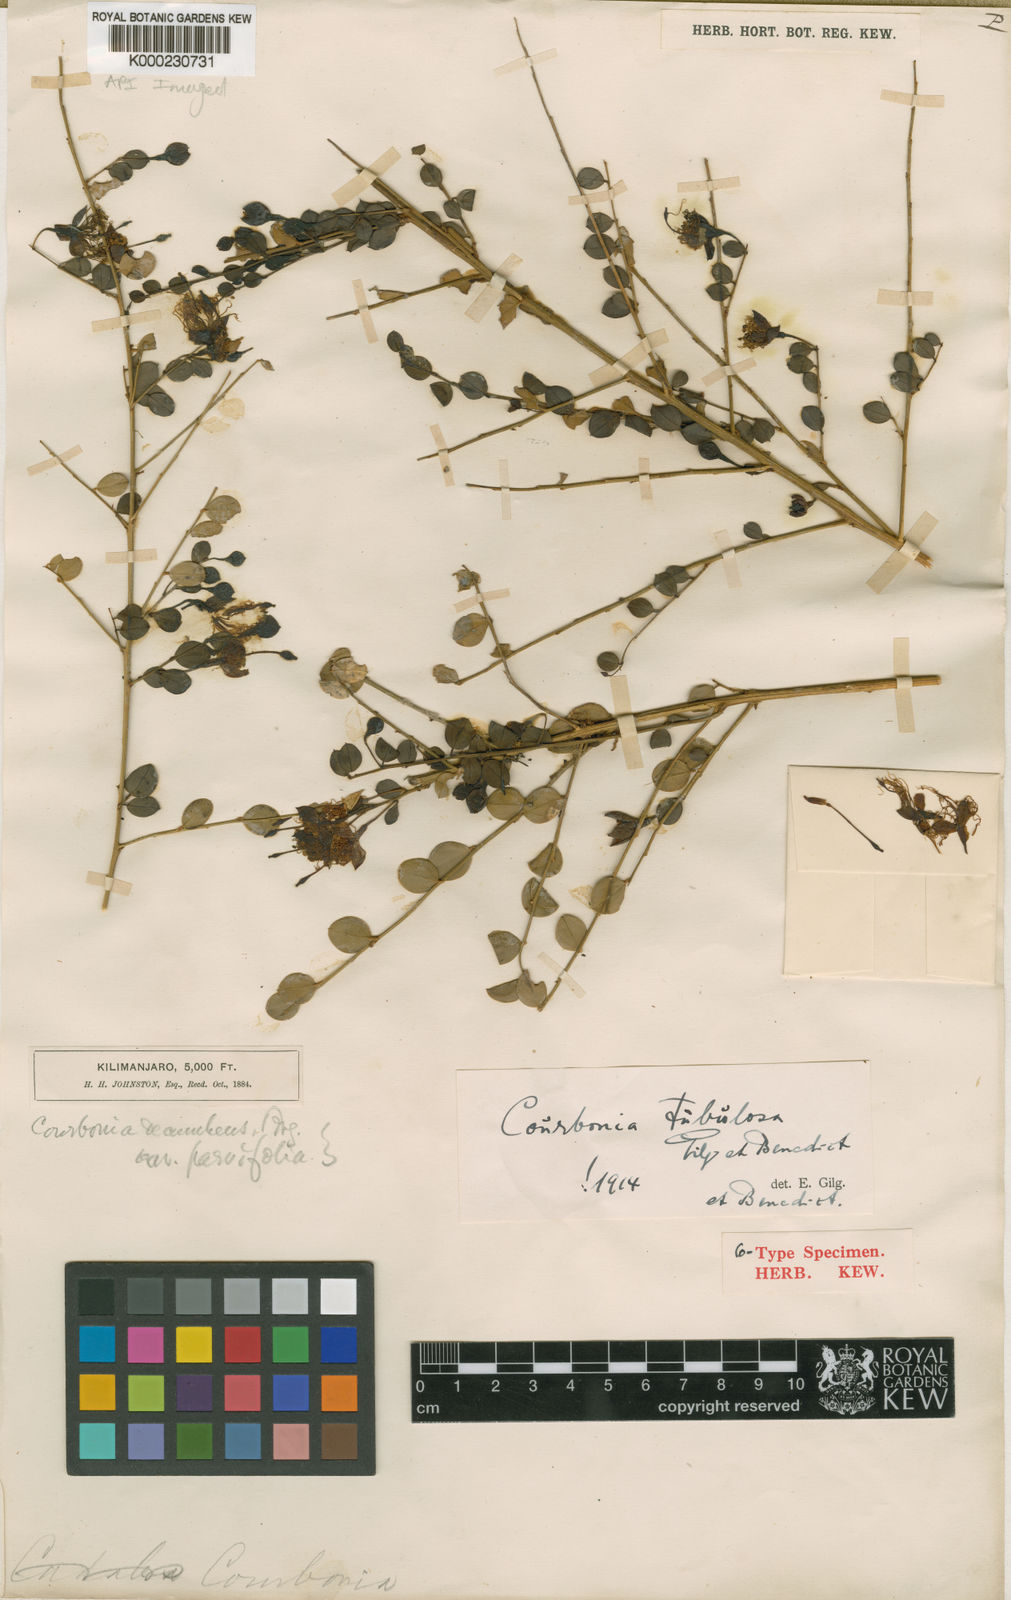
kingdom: Plantae
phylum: Tracheophyta
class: Magnoliopsida
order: Brassicales
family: Capparaceae
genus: Maerua
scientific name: Maerua subcordata
